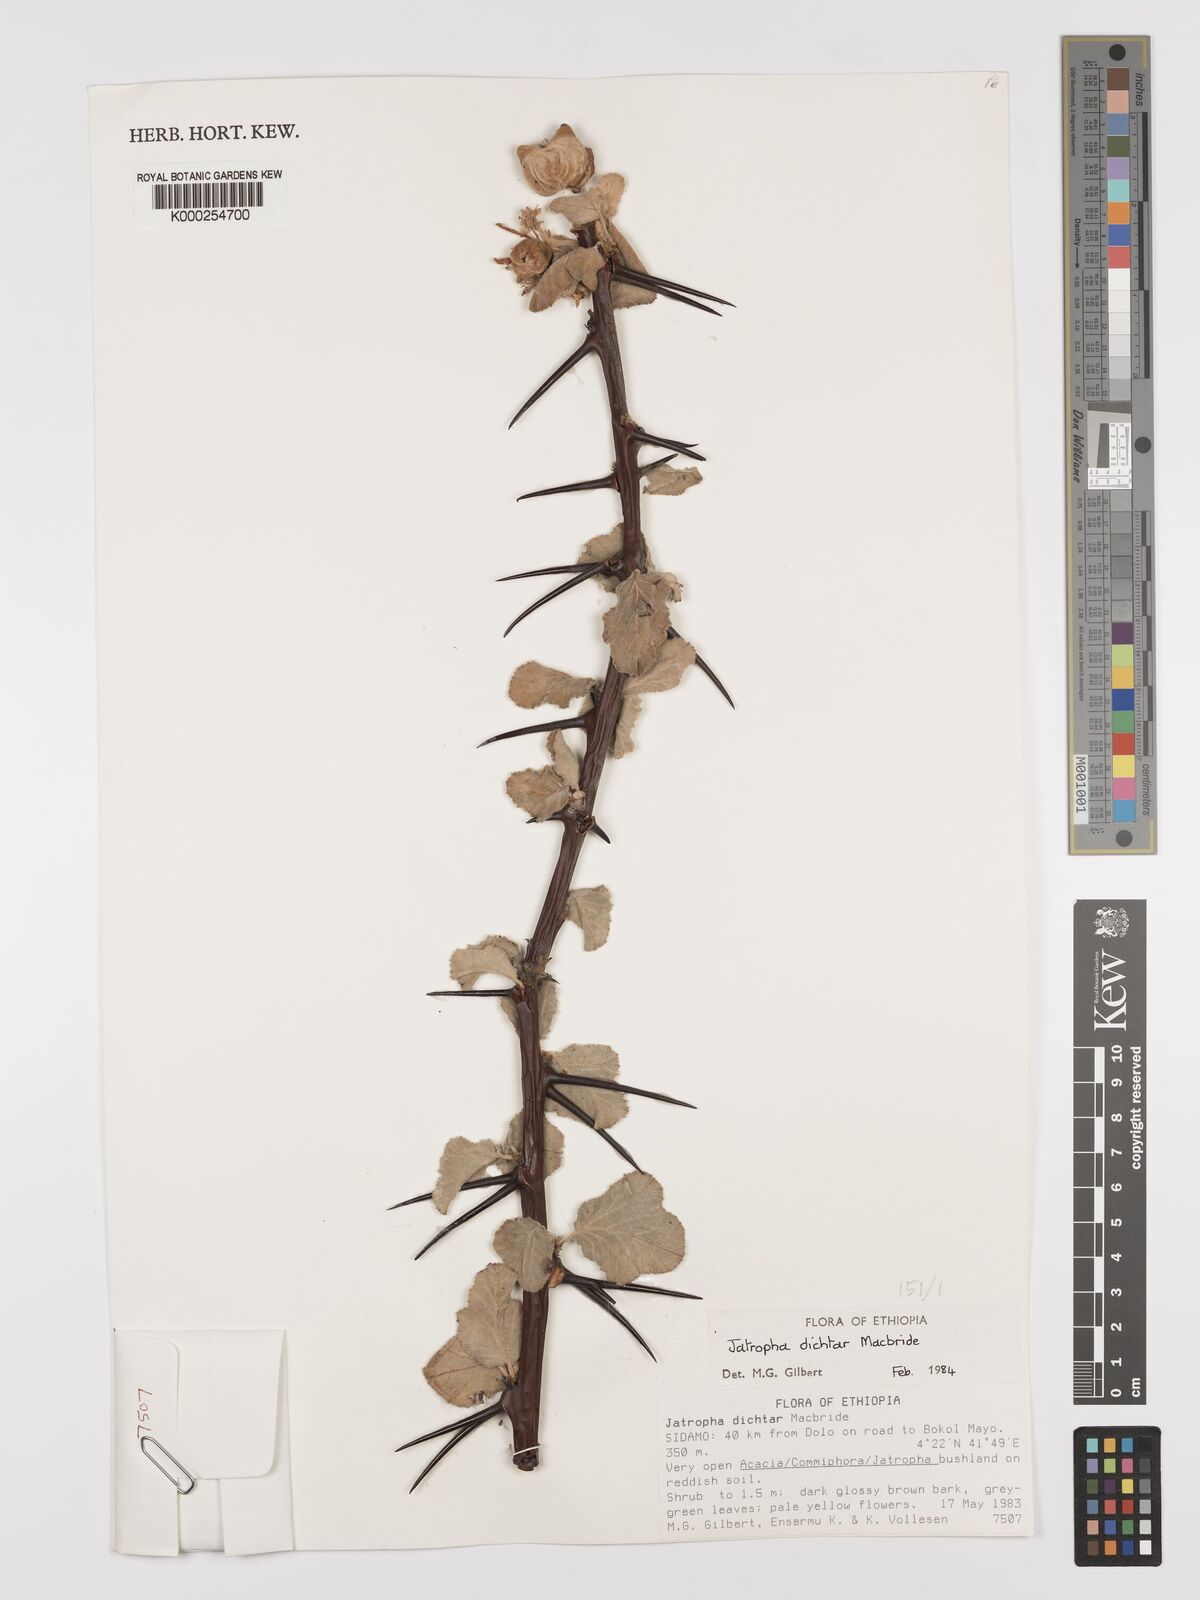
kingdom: Plantae
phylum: Tracheophyta
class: Magnoliopsida
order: Malpighiales
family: Euphorbiaceae
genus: Jatropha
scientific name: Jatropha dichtar
